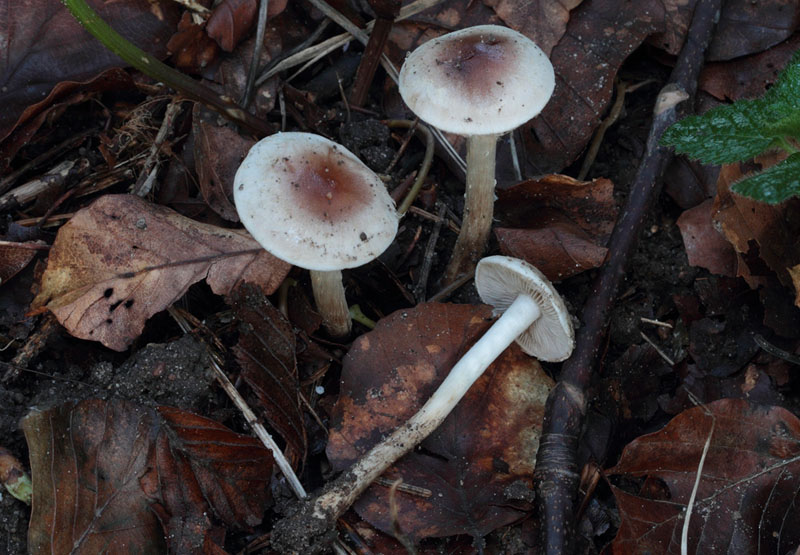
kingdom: Fungi
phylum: Basidiomycota
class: Agaricomycetes
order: Agaricales
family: Hymenogastraceae
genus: Hebeloma
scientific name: Hebeloma mesophaeum
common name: lerbrun tåreblad
